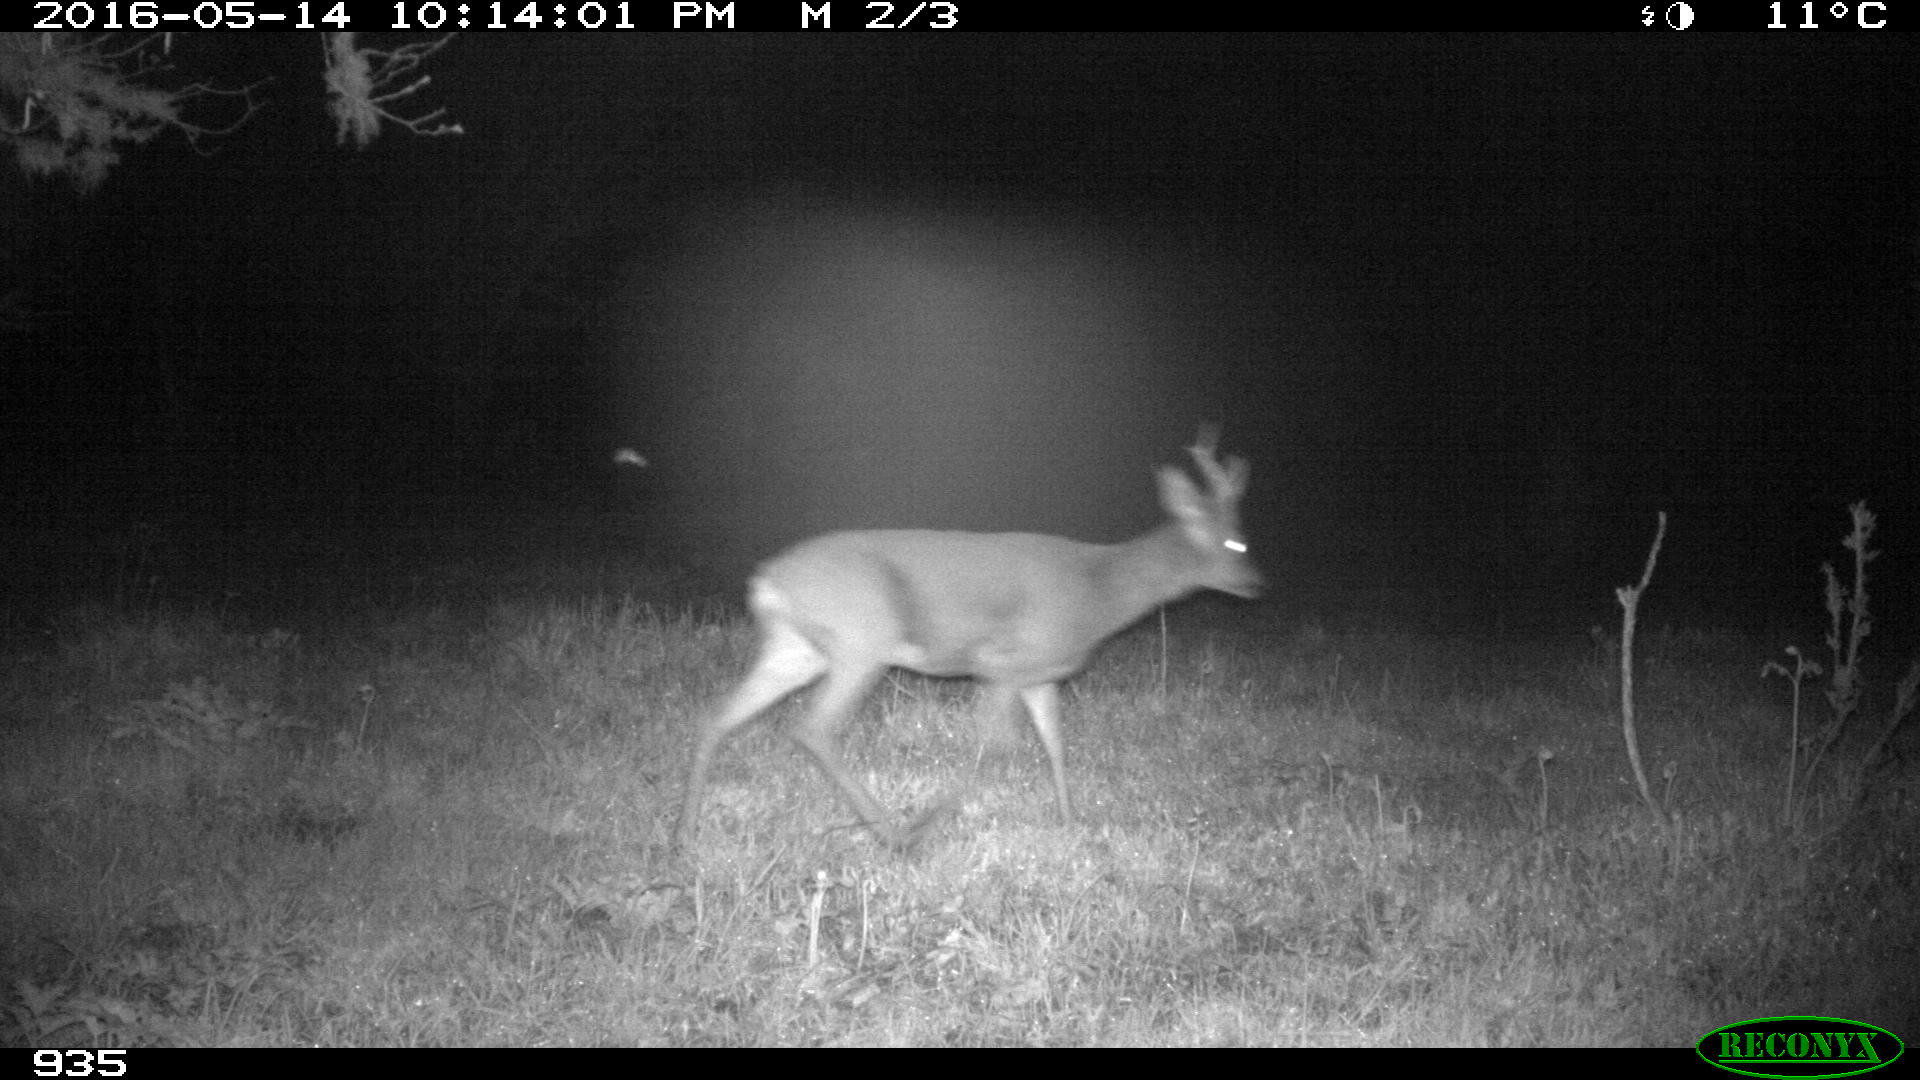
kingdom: Animalia
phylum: Chordata
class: Mammalia
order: Artiodactyla
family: Cervidae
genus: Capreolus
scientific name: Capreolus capreolus
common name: Western roe deer
